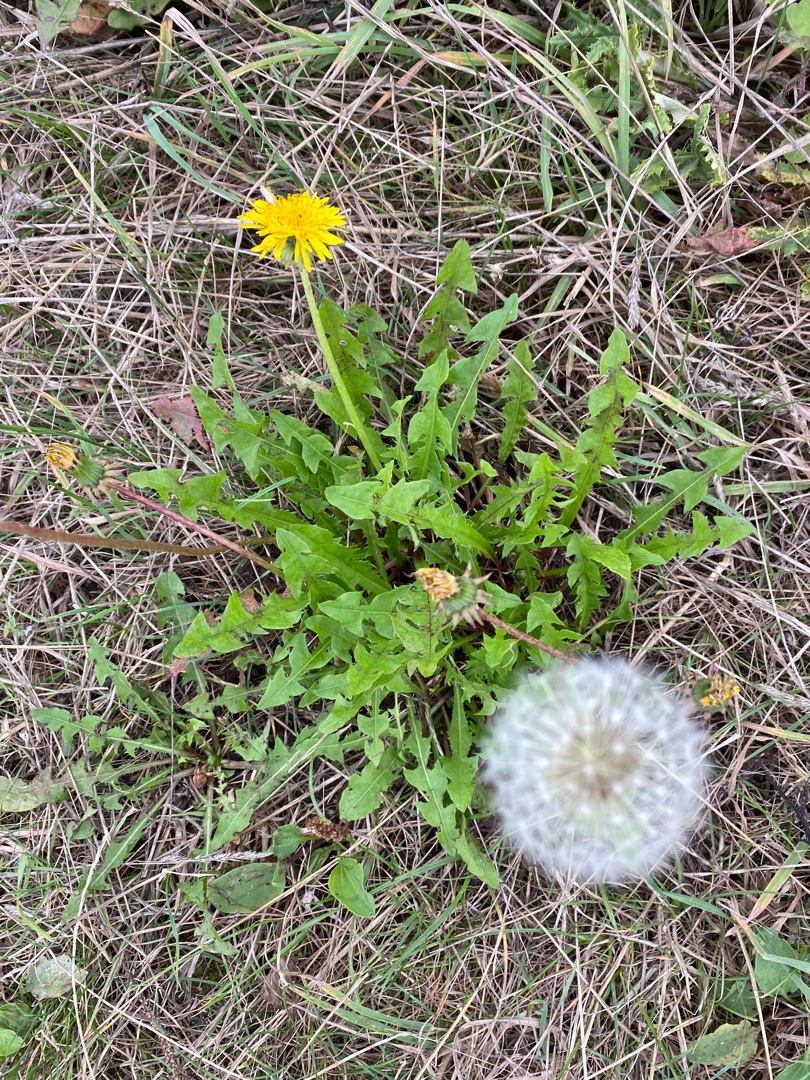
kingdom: Plantae
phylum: Tracheophyta
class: Magnoliopsida
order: Asterales
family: Asteraceae
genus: Taraxacum
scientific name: Taraxacum
